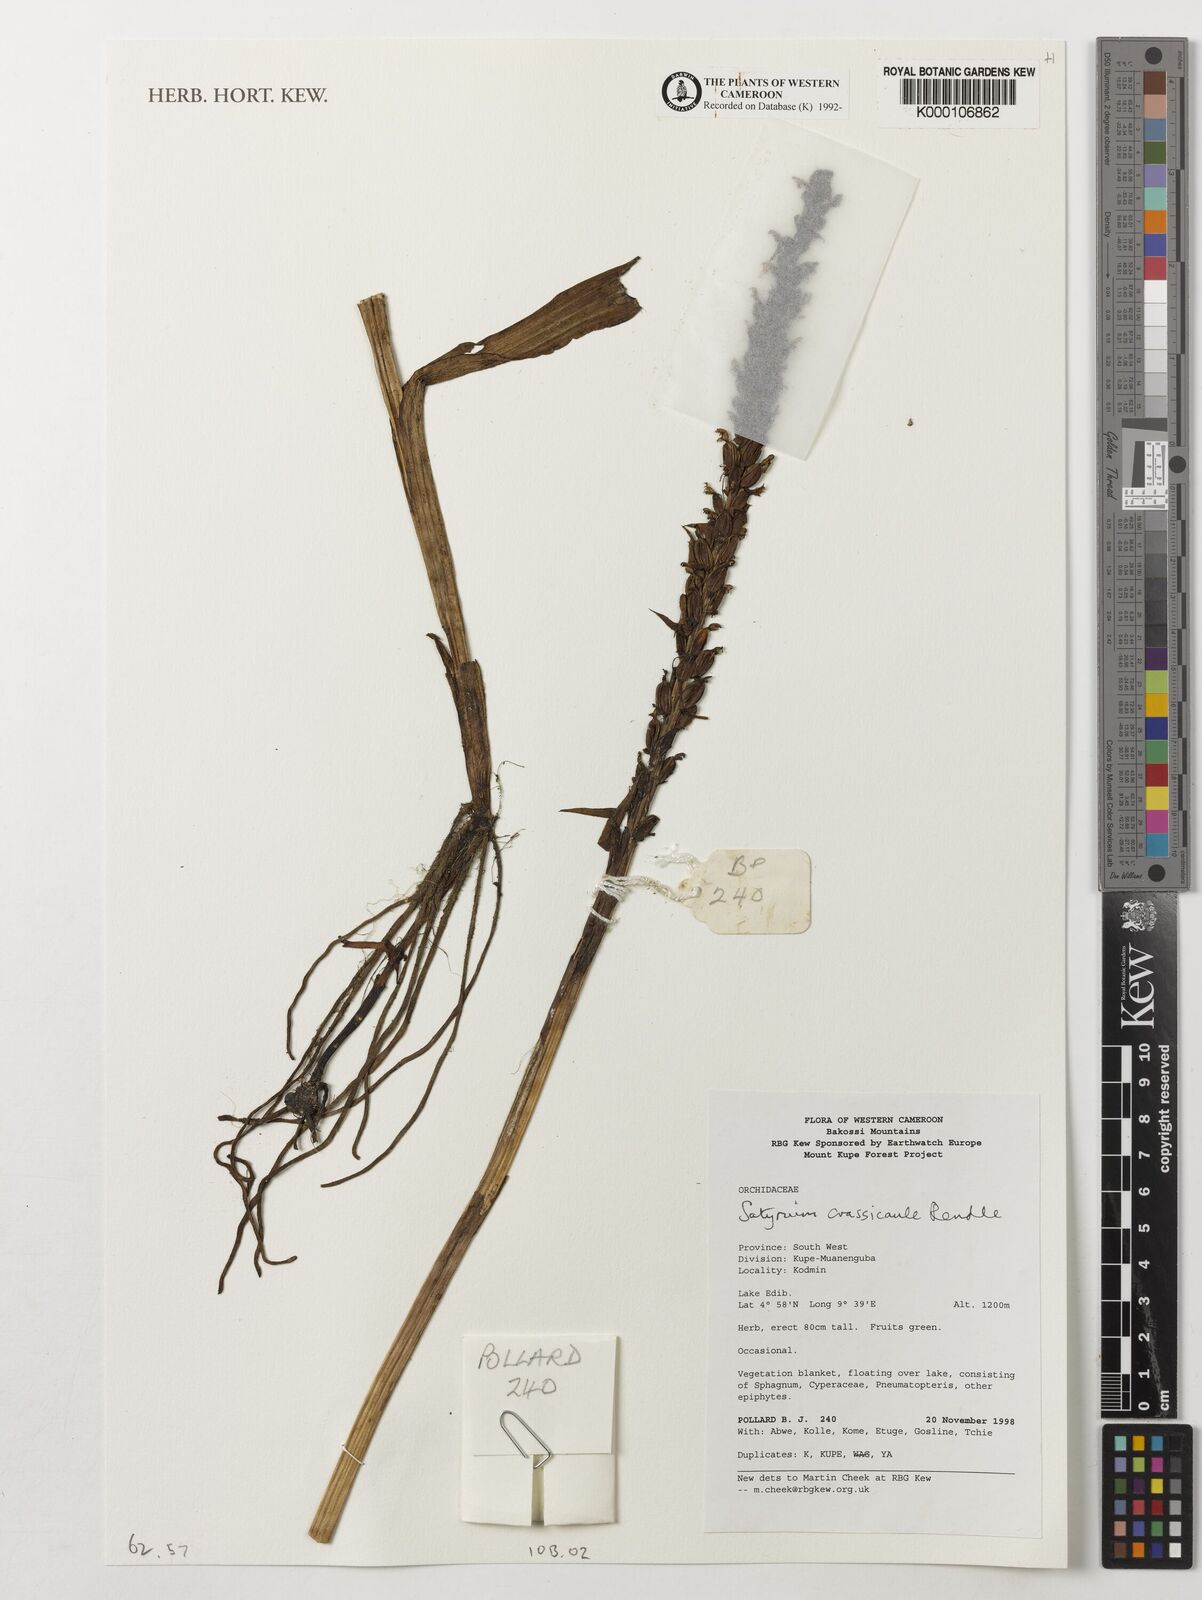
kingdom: Plantae
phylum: Tracheophyta
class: Liliopsida
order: Asparagales
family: Orchidaceae
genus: Satyrium
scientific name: Satyrium crassicaule
